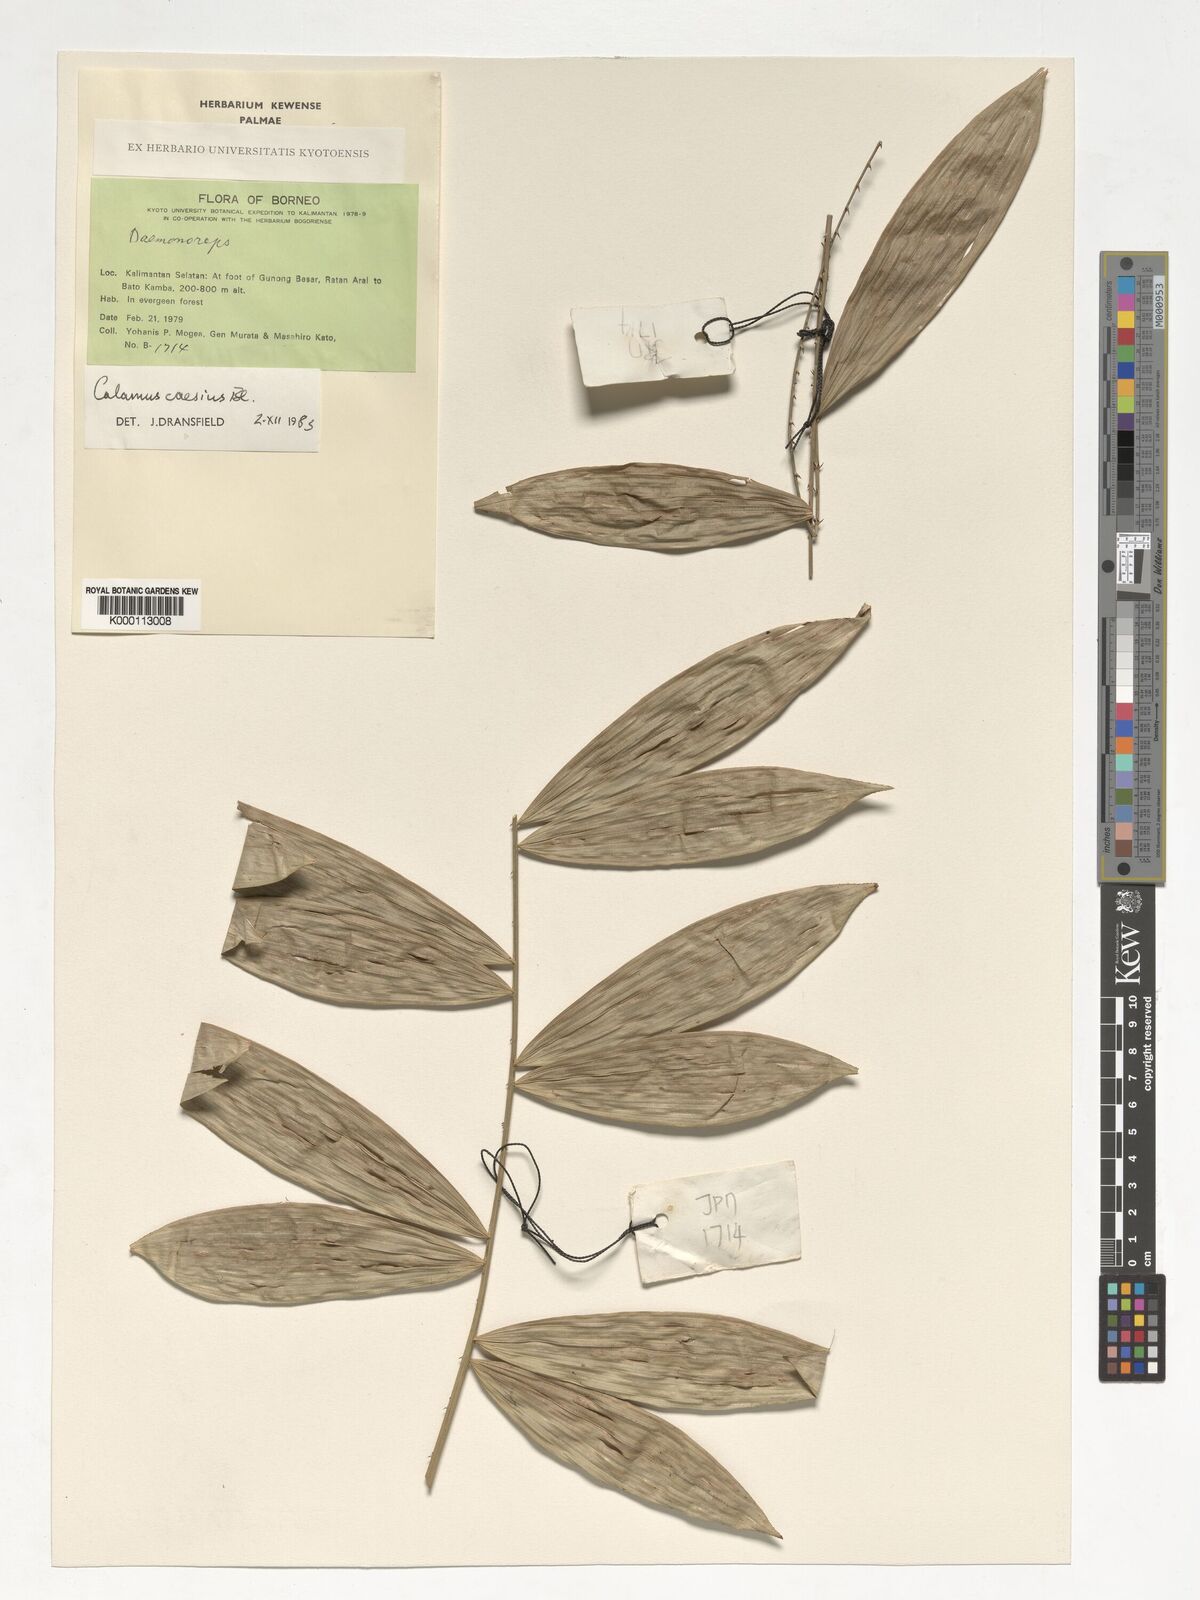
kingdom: Plantae
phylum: Tracheophyta
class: Liliopsida
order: Arecales
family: Arecaceae
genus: Calamus
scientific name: Calamus caesius
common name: Rattan palm
